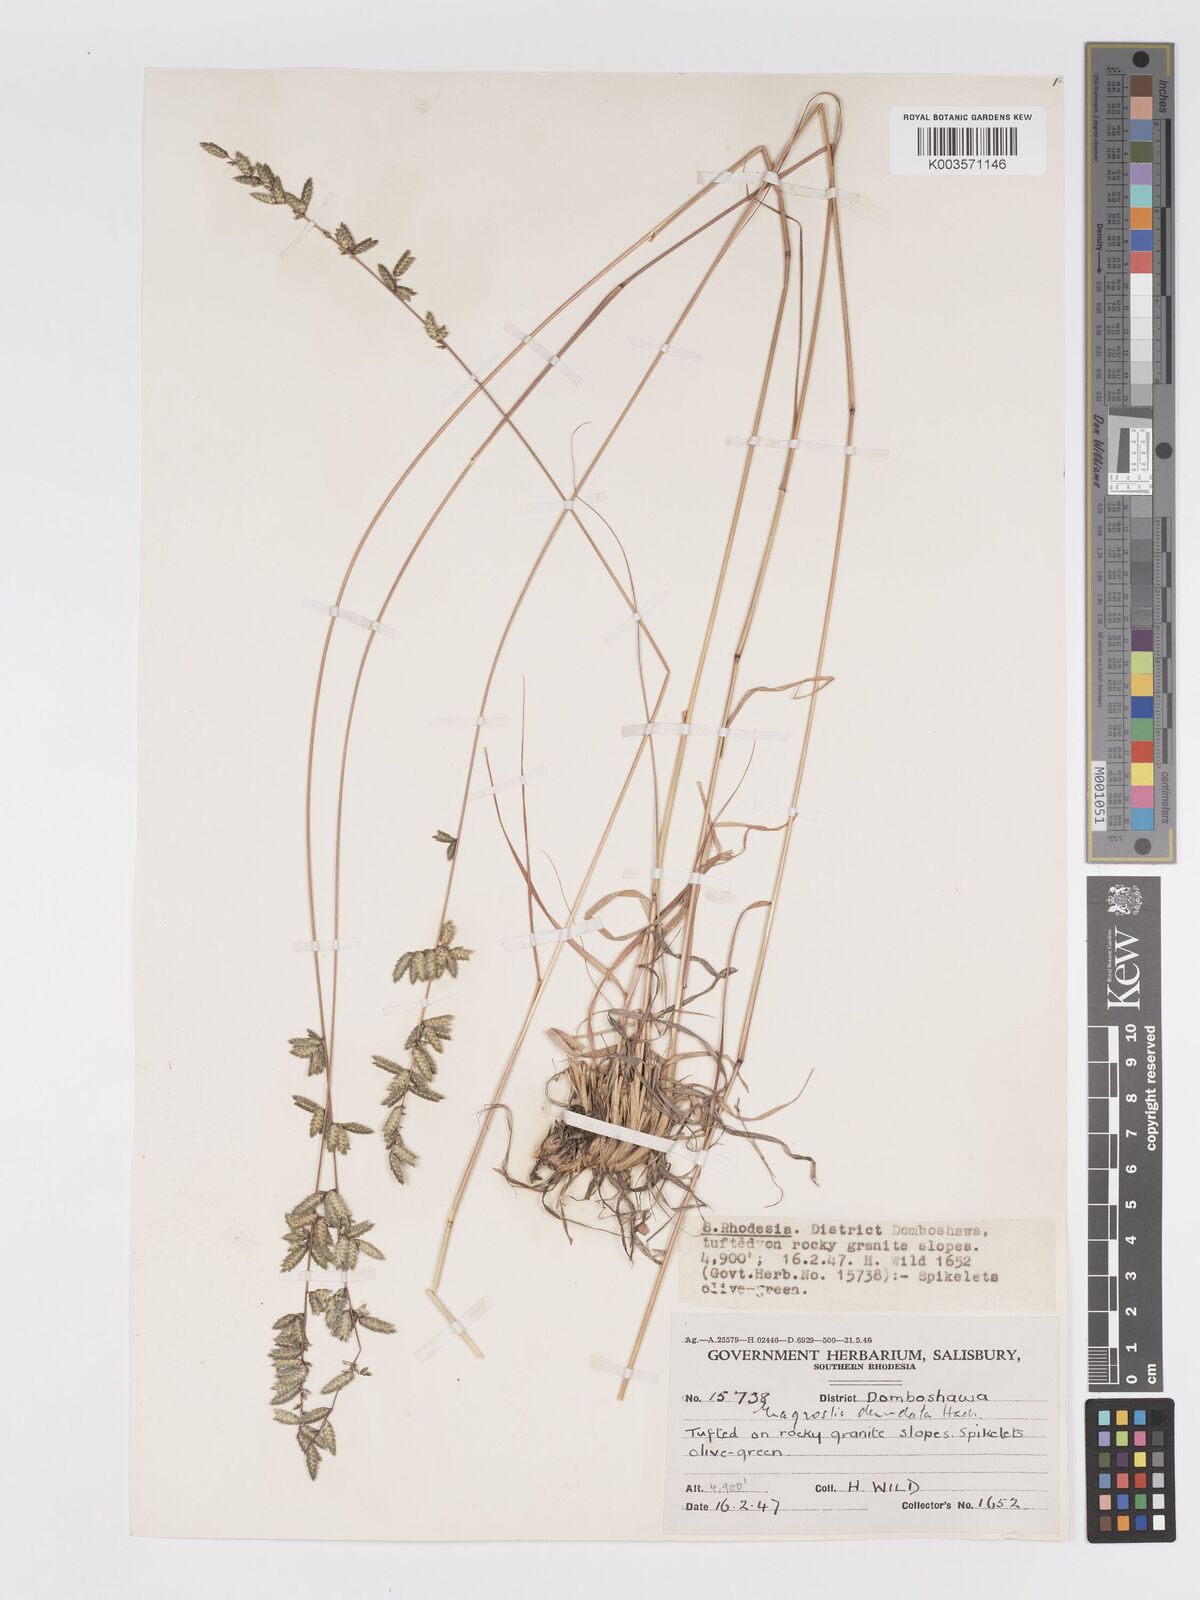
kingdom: Plantae
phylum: Tracheophyta
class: Liliopsida
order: Poales
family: Poaceae
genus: Eragrostis
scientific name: Eragrostis nindensis
